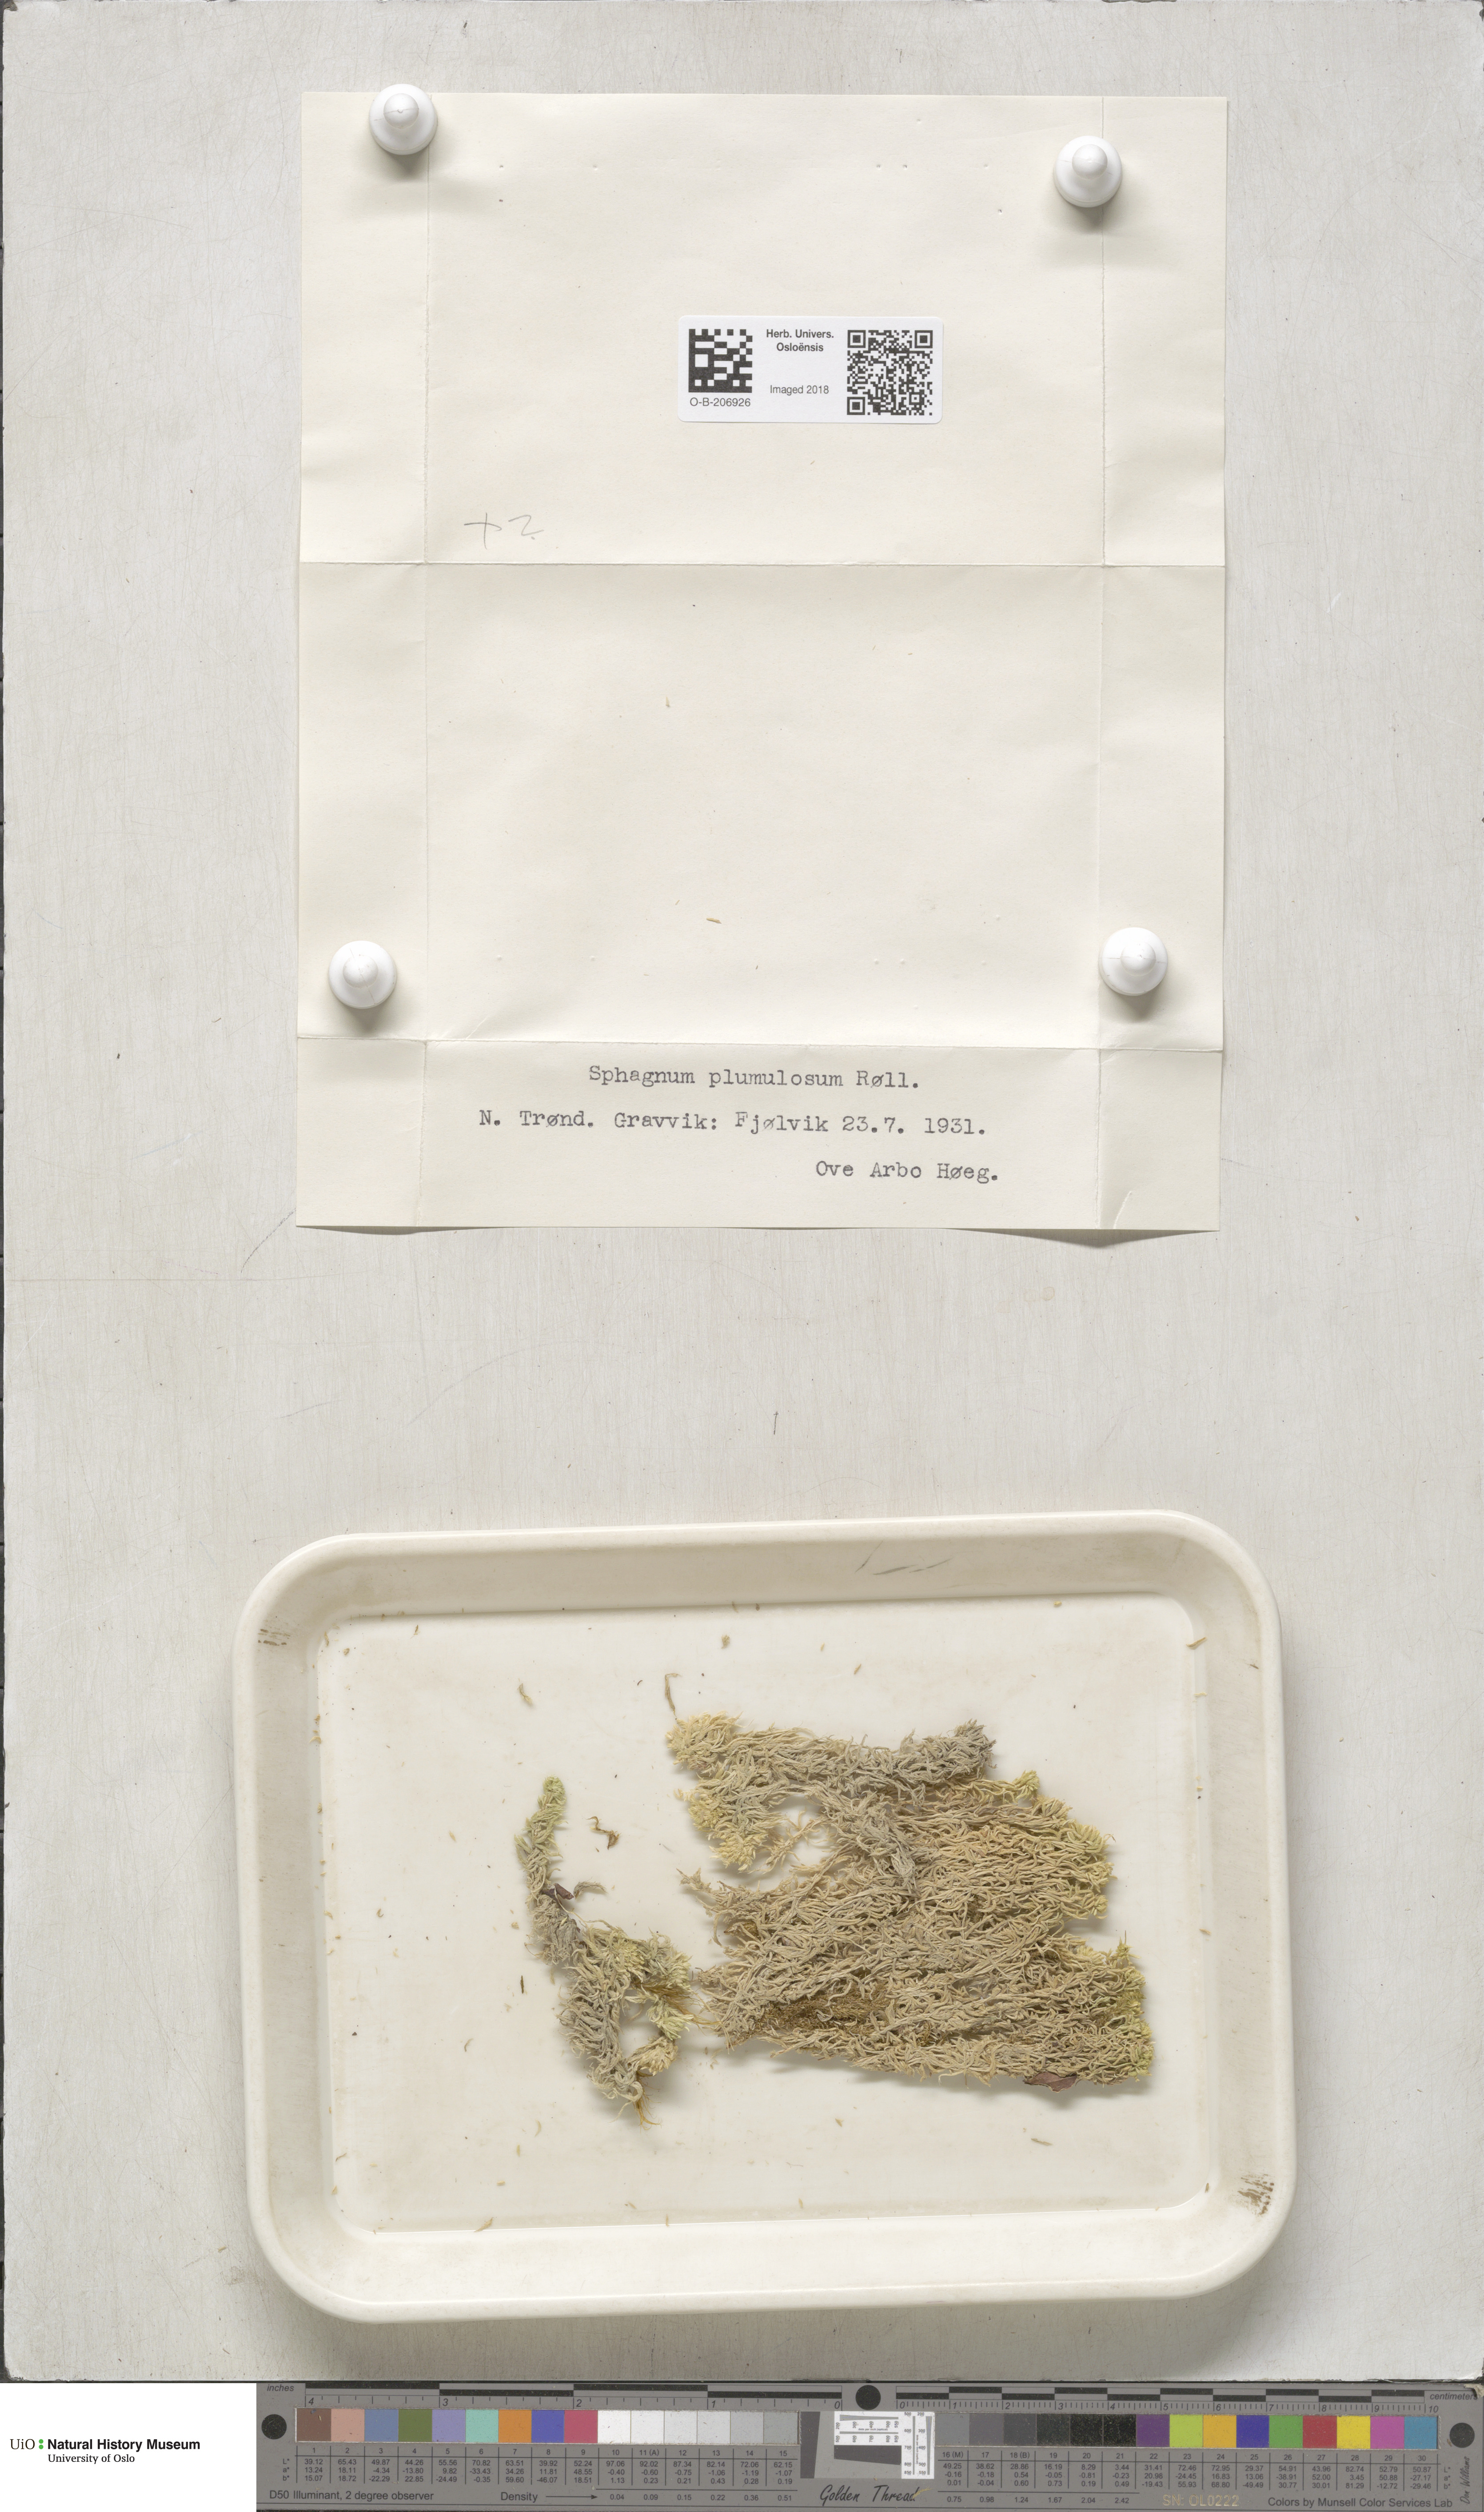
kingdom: Plantae
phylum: Bryophyta
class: Sphagnopsida
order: Sphagnales
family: Sphagnaceae
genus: Sphagnum
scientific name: Sphagnum subnitens
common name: Lustrous bog-moss
